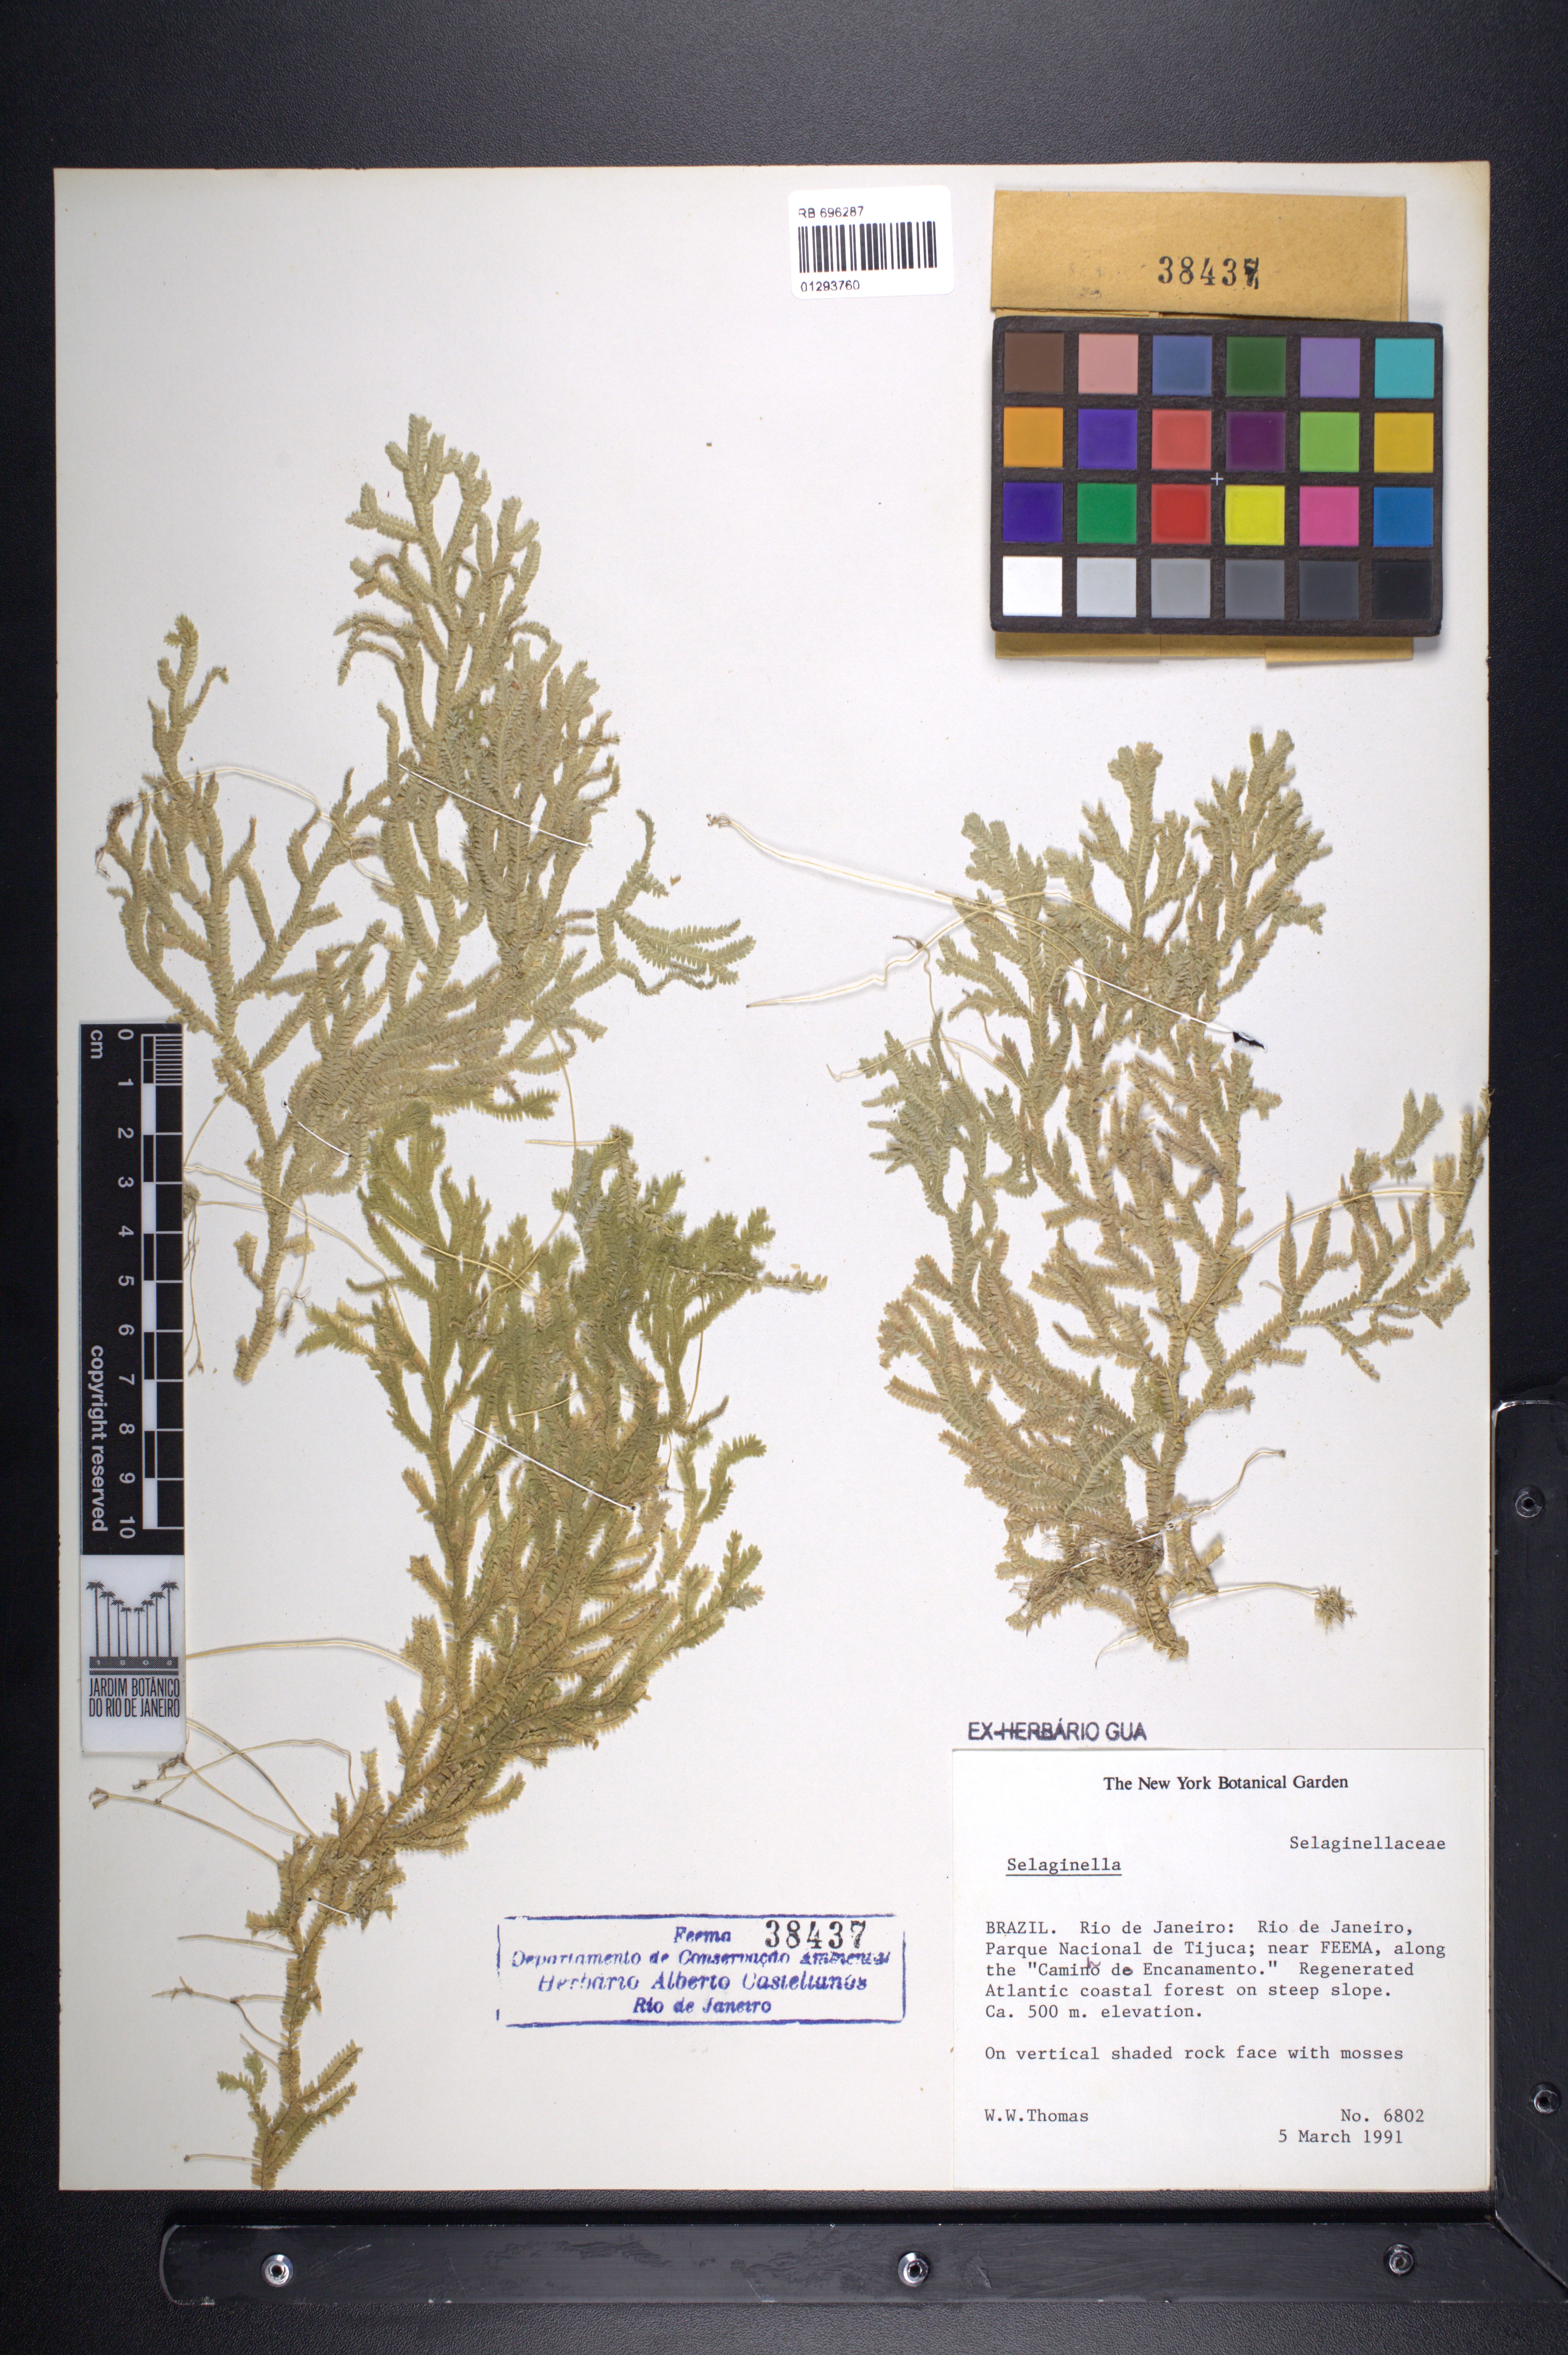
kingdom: Plantae
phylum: Tracheophyta
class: Lycopodiopsida
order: Selaginellales
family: Selaginellaceae
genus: Selaginella
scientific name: Selaginella
